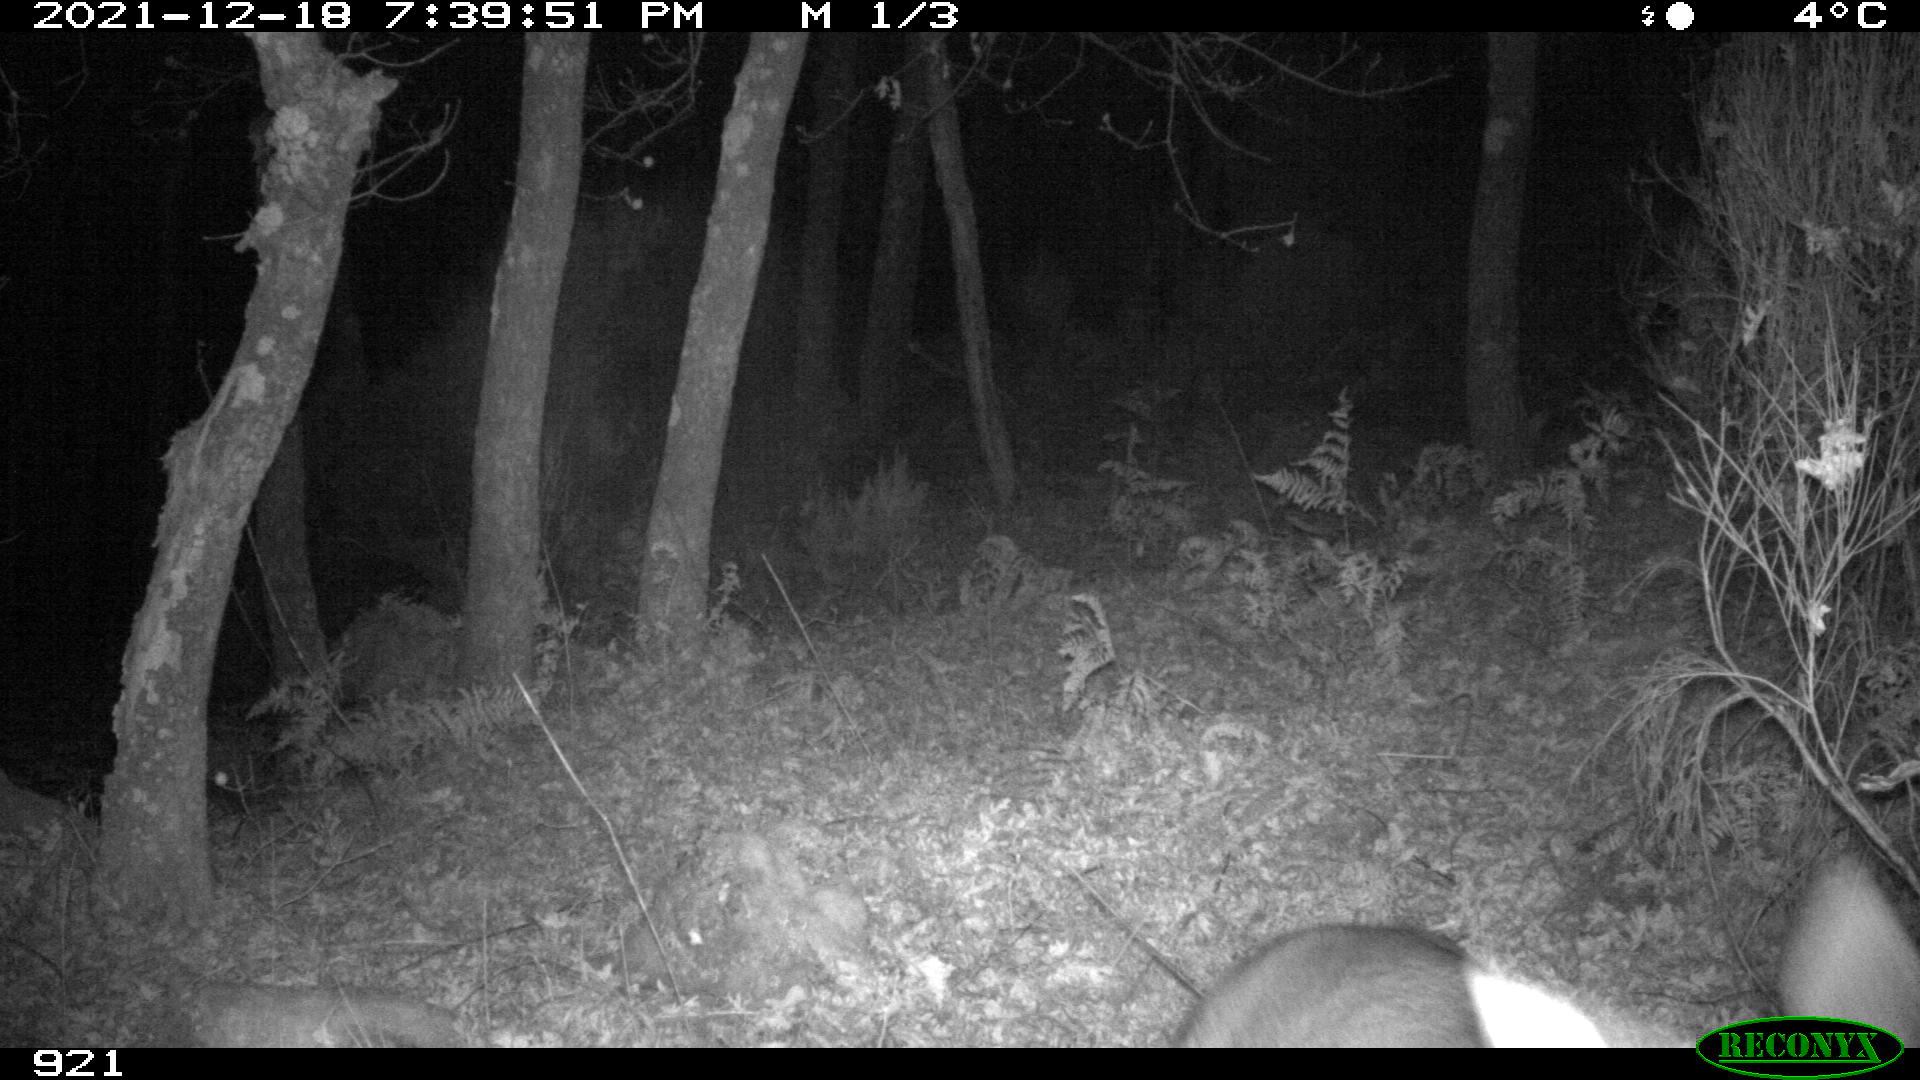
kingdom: Animalia
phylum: Chordata
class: Mammalia
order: Artiodactyla
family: Cervidae
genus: Capreolus
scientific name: Capreolus capreolus
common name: Western roe deer
